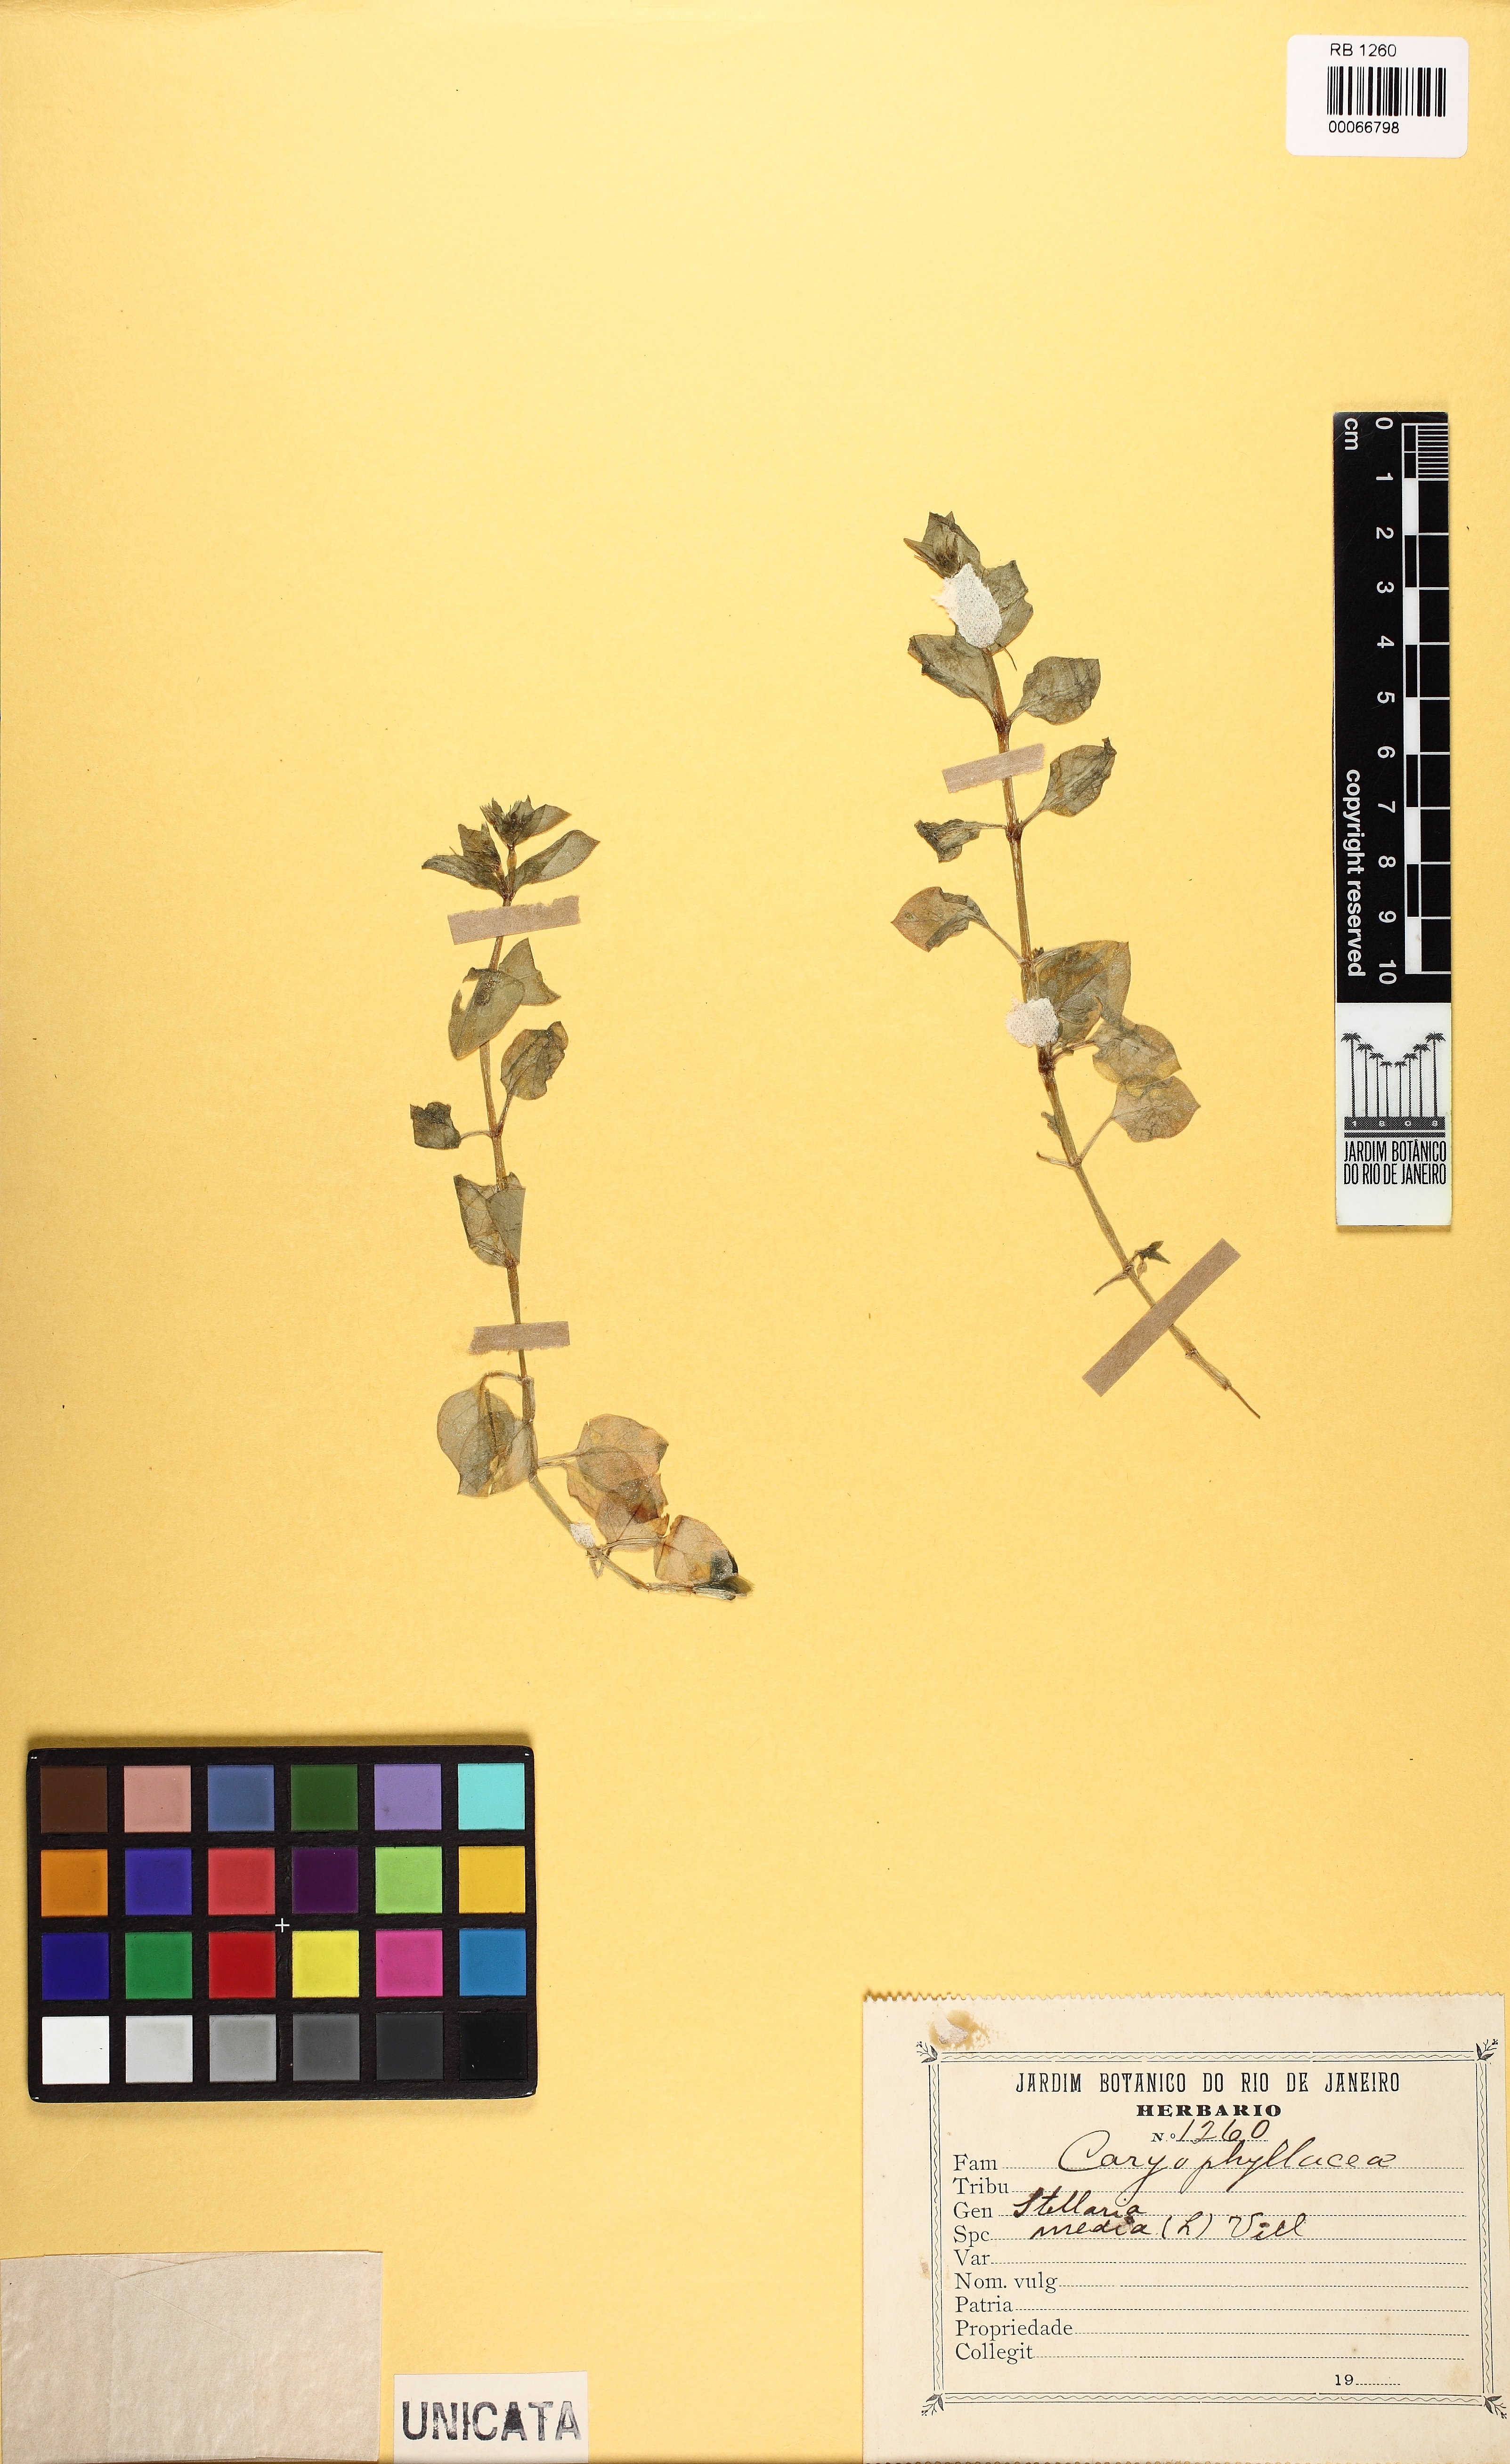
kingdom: Plantae
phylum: Tracheophyta
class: Magnoliopsida
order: Caryophyllales
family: Caryophyllaceae
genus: Stellaria
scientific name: Stellaria media
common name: Common chickweed
